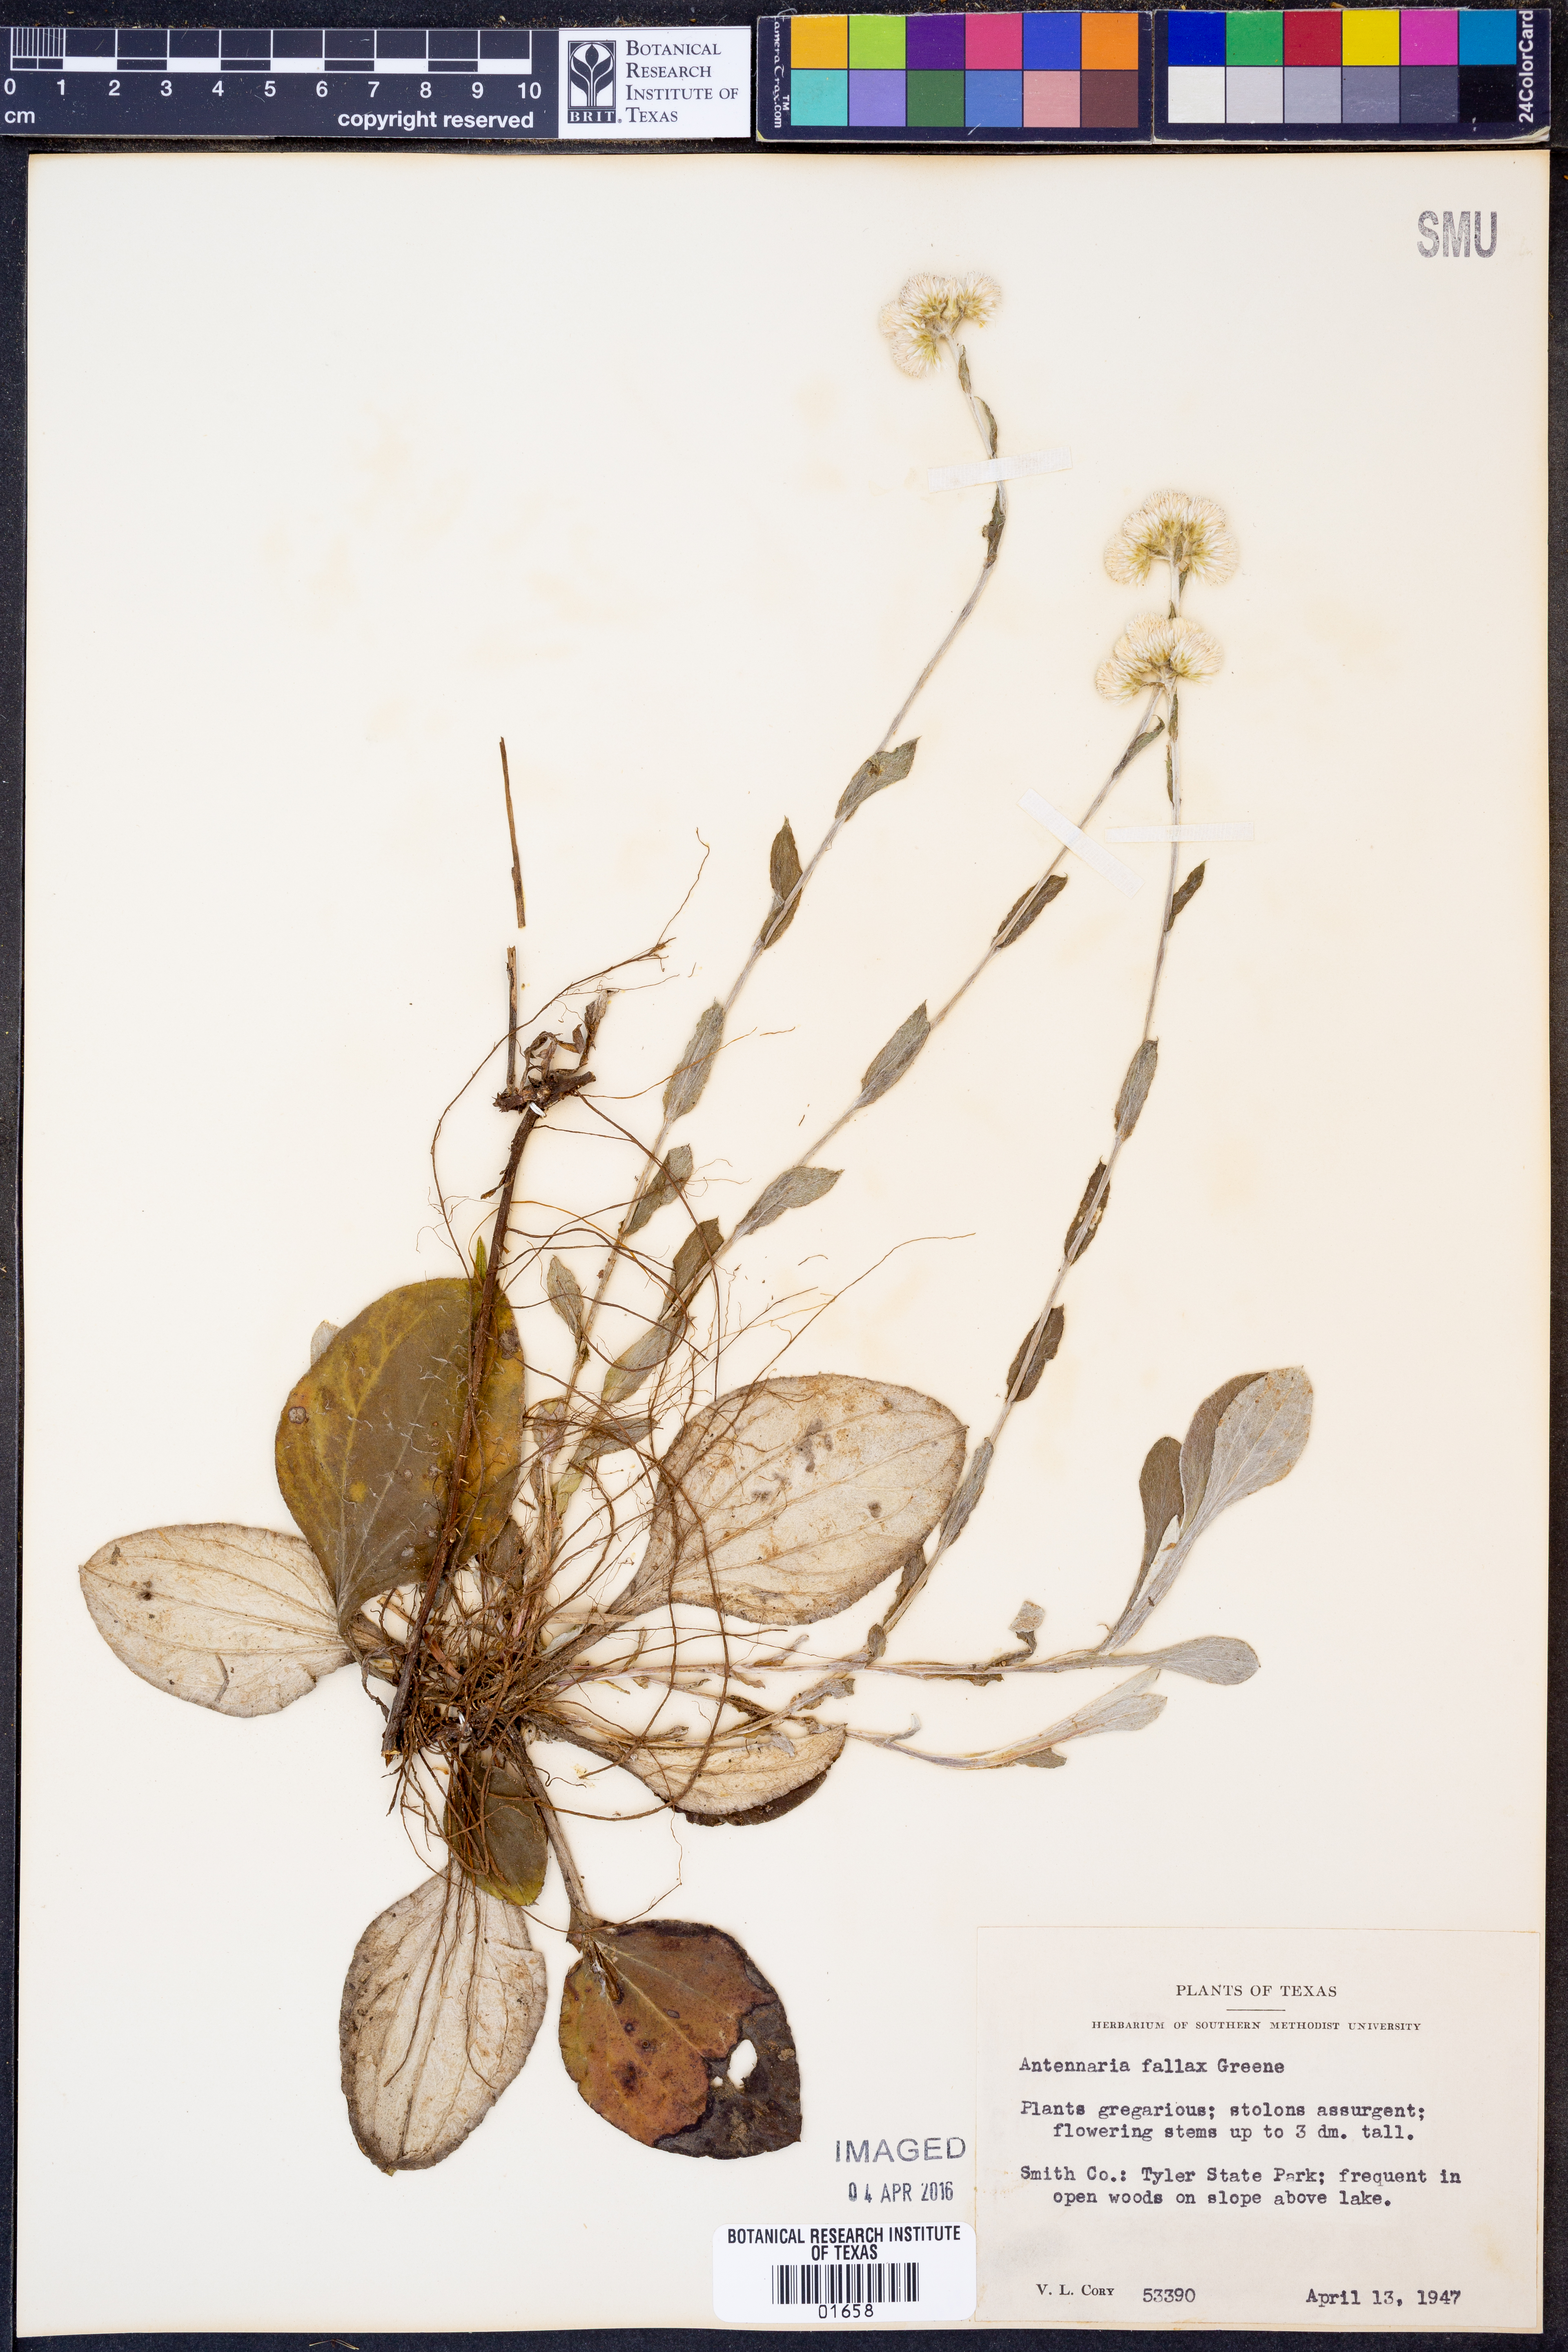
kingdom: Plantae
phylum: Tracheophyta
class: Magnoliopsida
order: Asterales
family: Asteraceae
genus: Antennaria
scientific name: Antennaria parlinii
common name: Parlin's pussytoes
